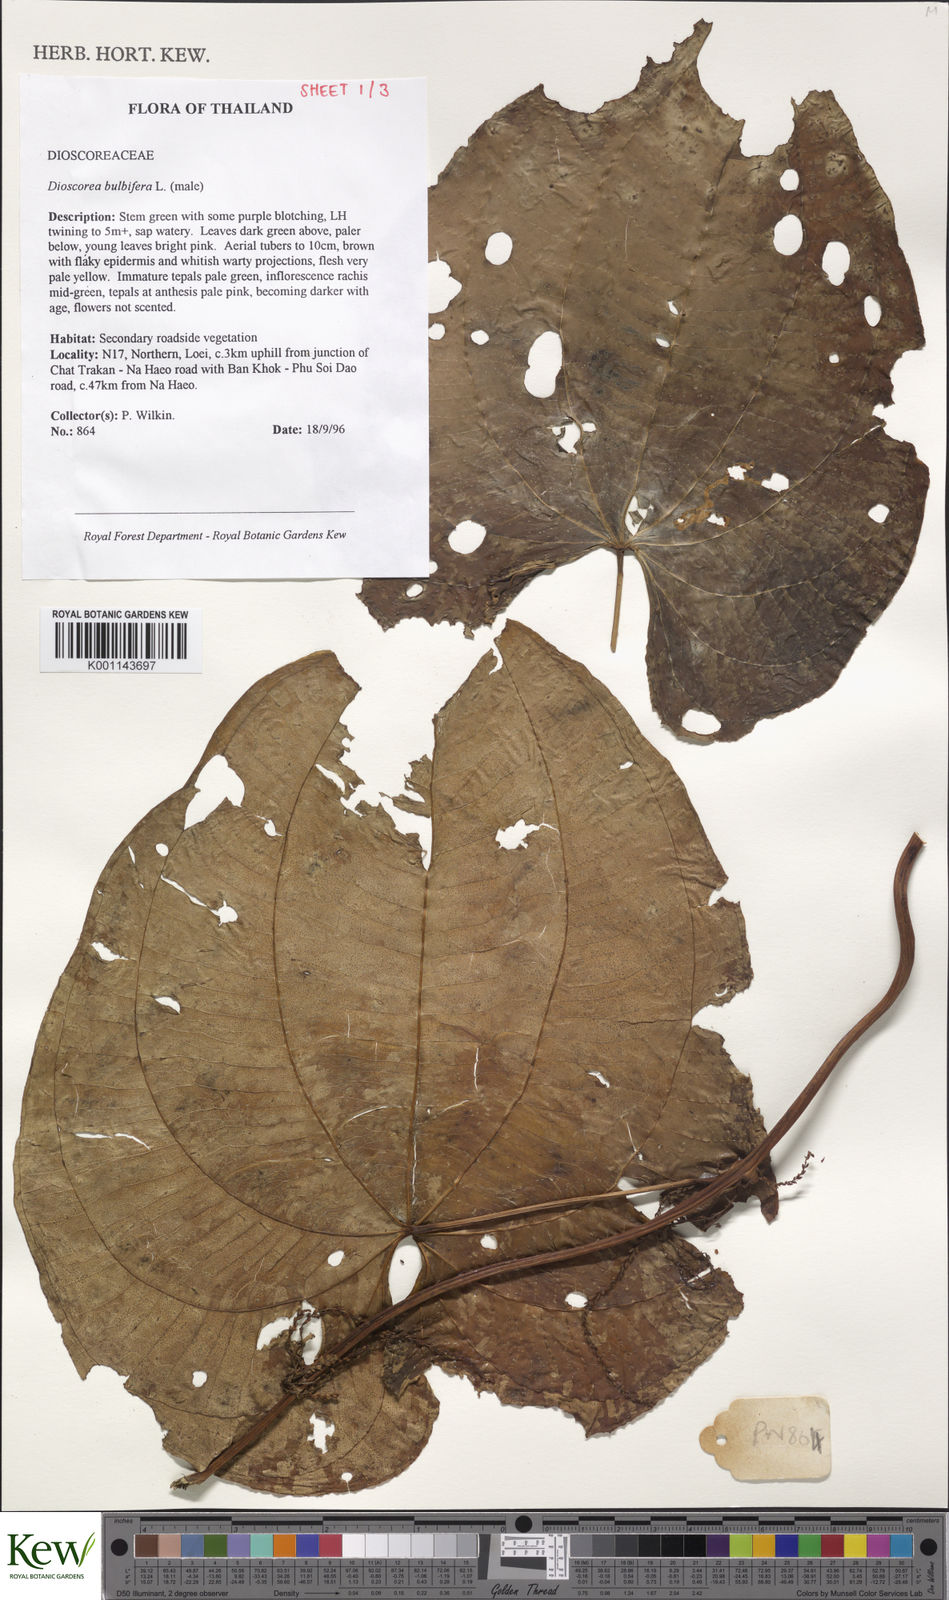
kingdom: Plantae
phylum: Tracheophyta
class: Liliopsida
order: Dioscoreales
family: Dioscoreaceae
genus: Dioscorea
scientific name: Dioscorea bulbifera
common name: Air yam
